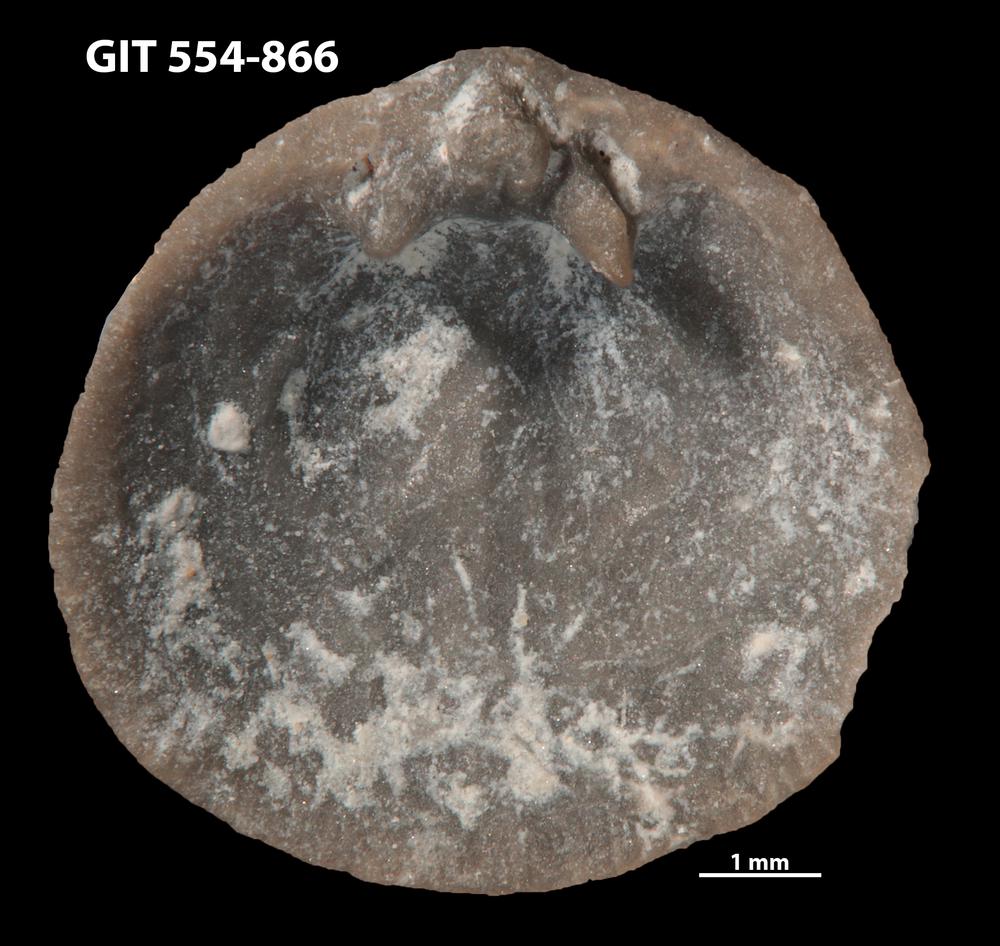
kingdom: Animalia
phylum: Brachiopoda
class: Rhynchonellata
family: Rhipidomellidae
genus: Mendacella
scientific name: Mendacella Orthis hybrida
